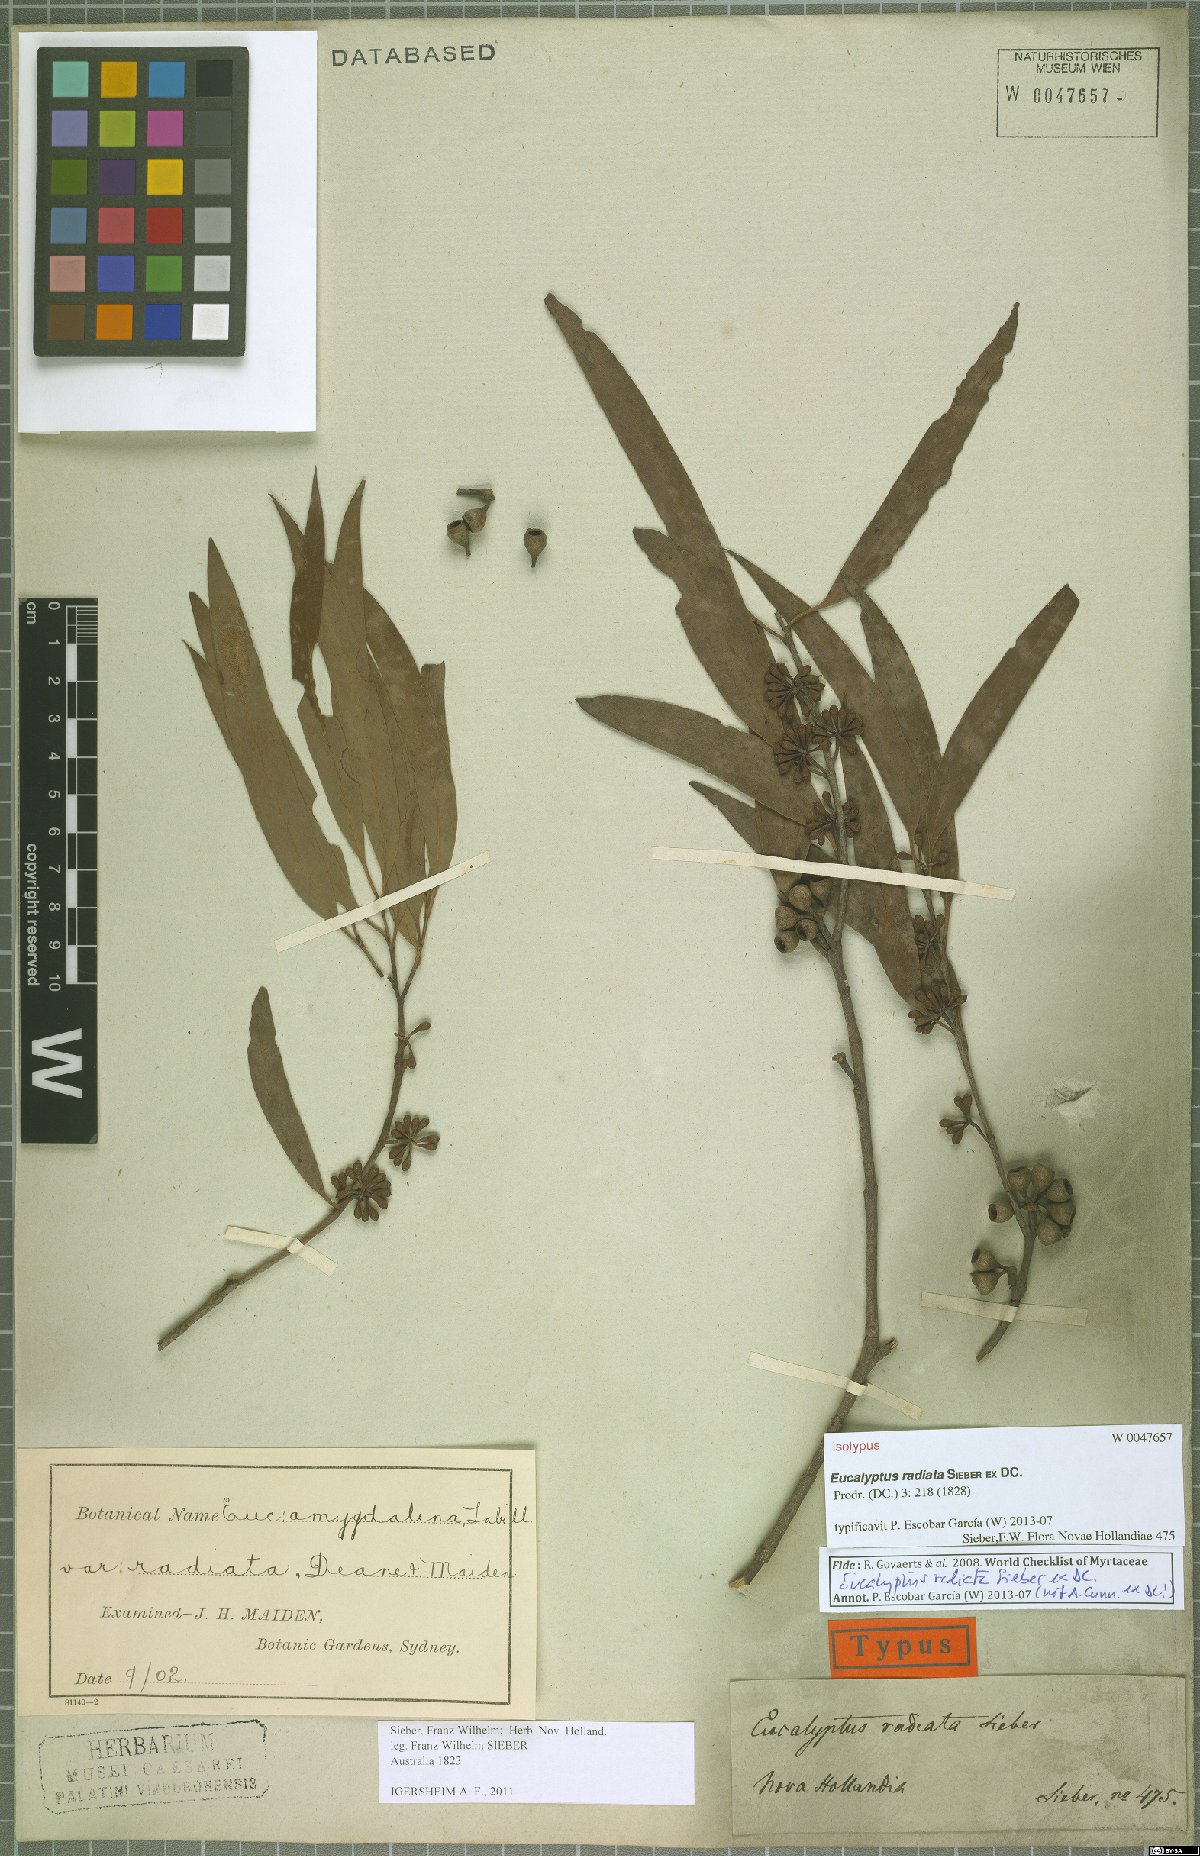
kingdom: Plantae
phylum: Tracheophyta
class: Magnoliopsida
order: Myrtales
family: Myrtaceae
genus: Eucalyptus
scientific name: Eucalyptus radiata
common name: Narrow-leaved-peppermint
